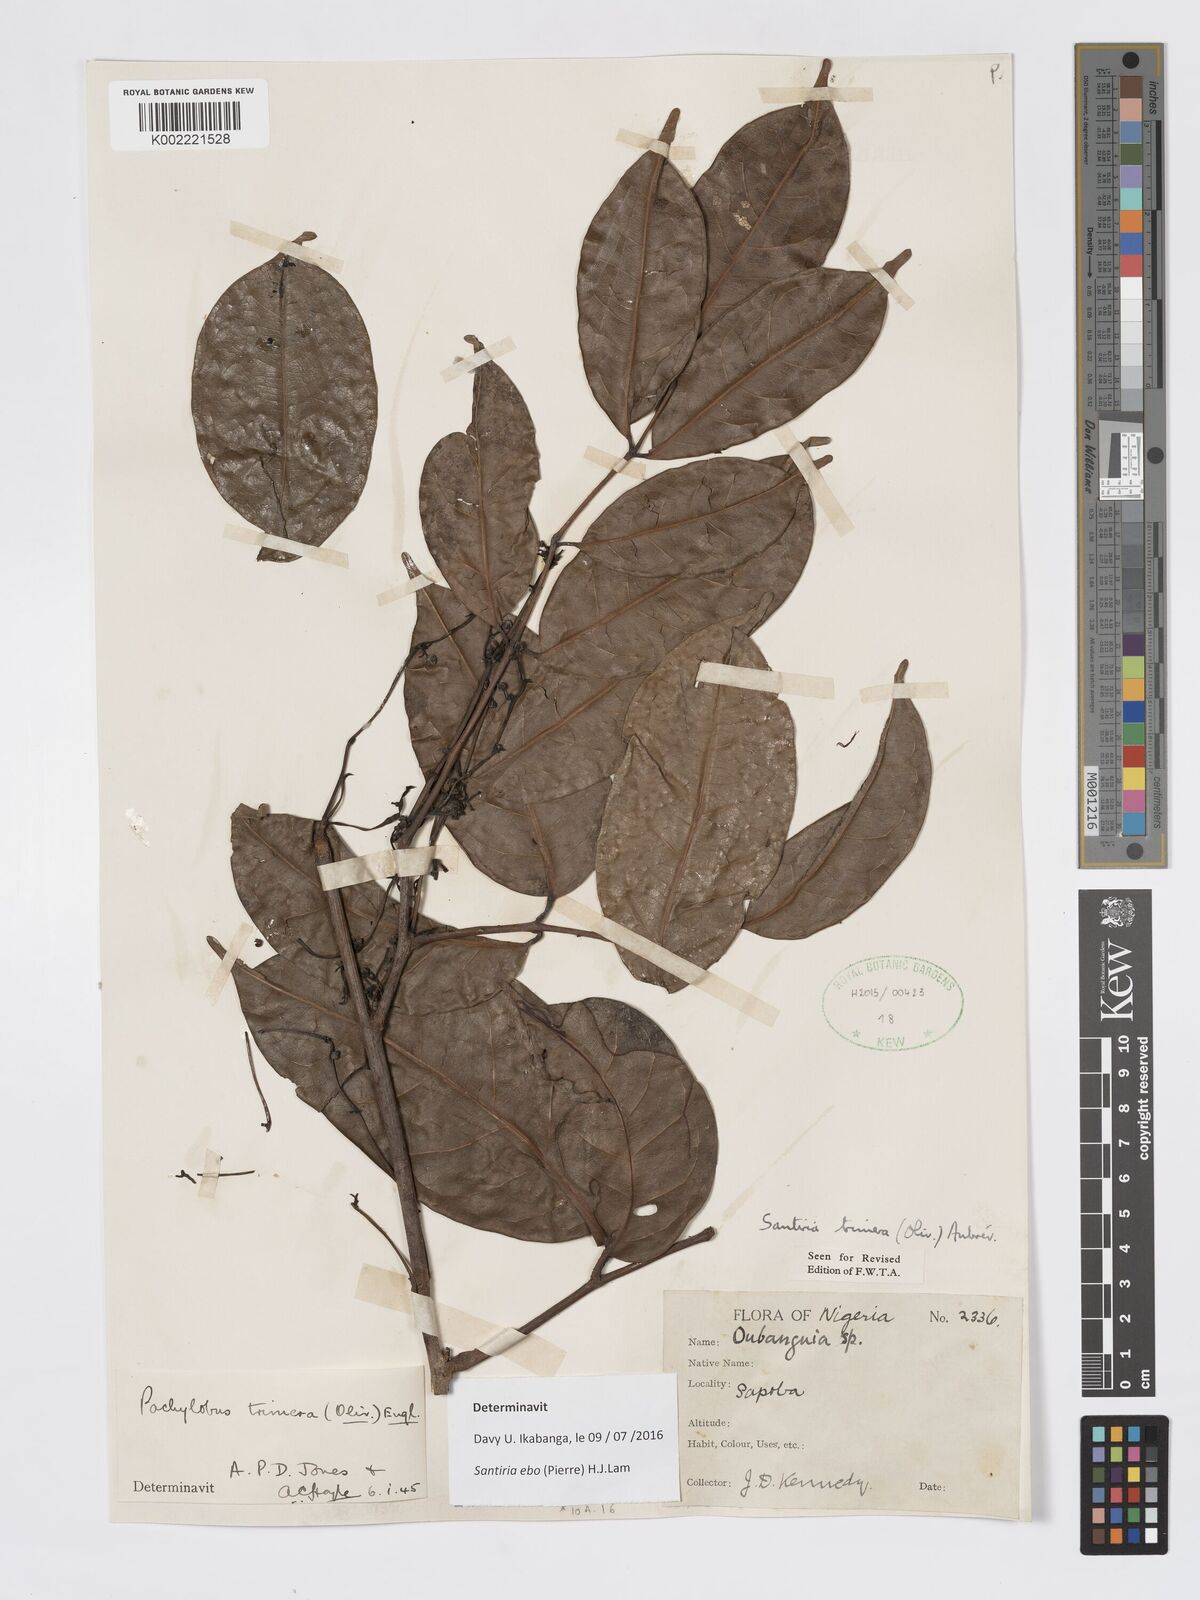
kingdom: Plantae
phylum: Tracheophyta
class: Magnoliopsida
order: Sapindales
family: Burseraceae
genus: Pachylobus
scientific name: Pachylobus trimerus
